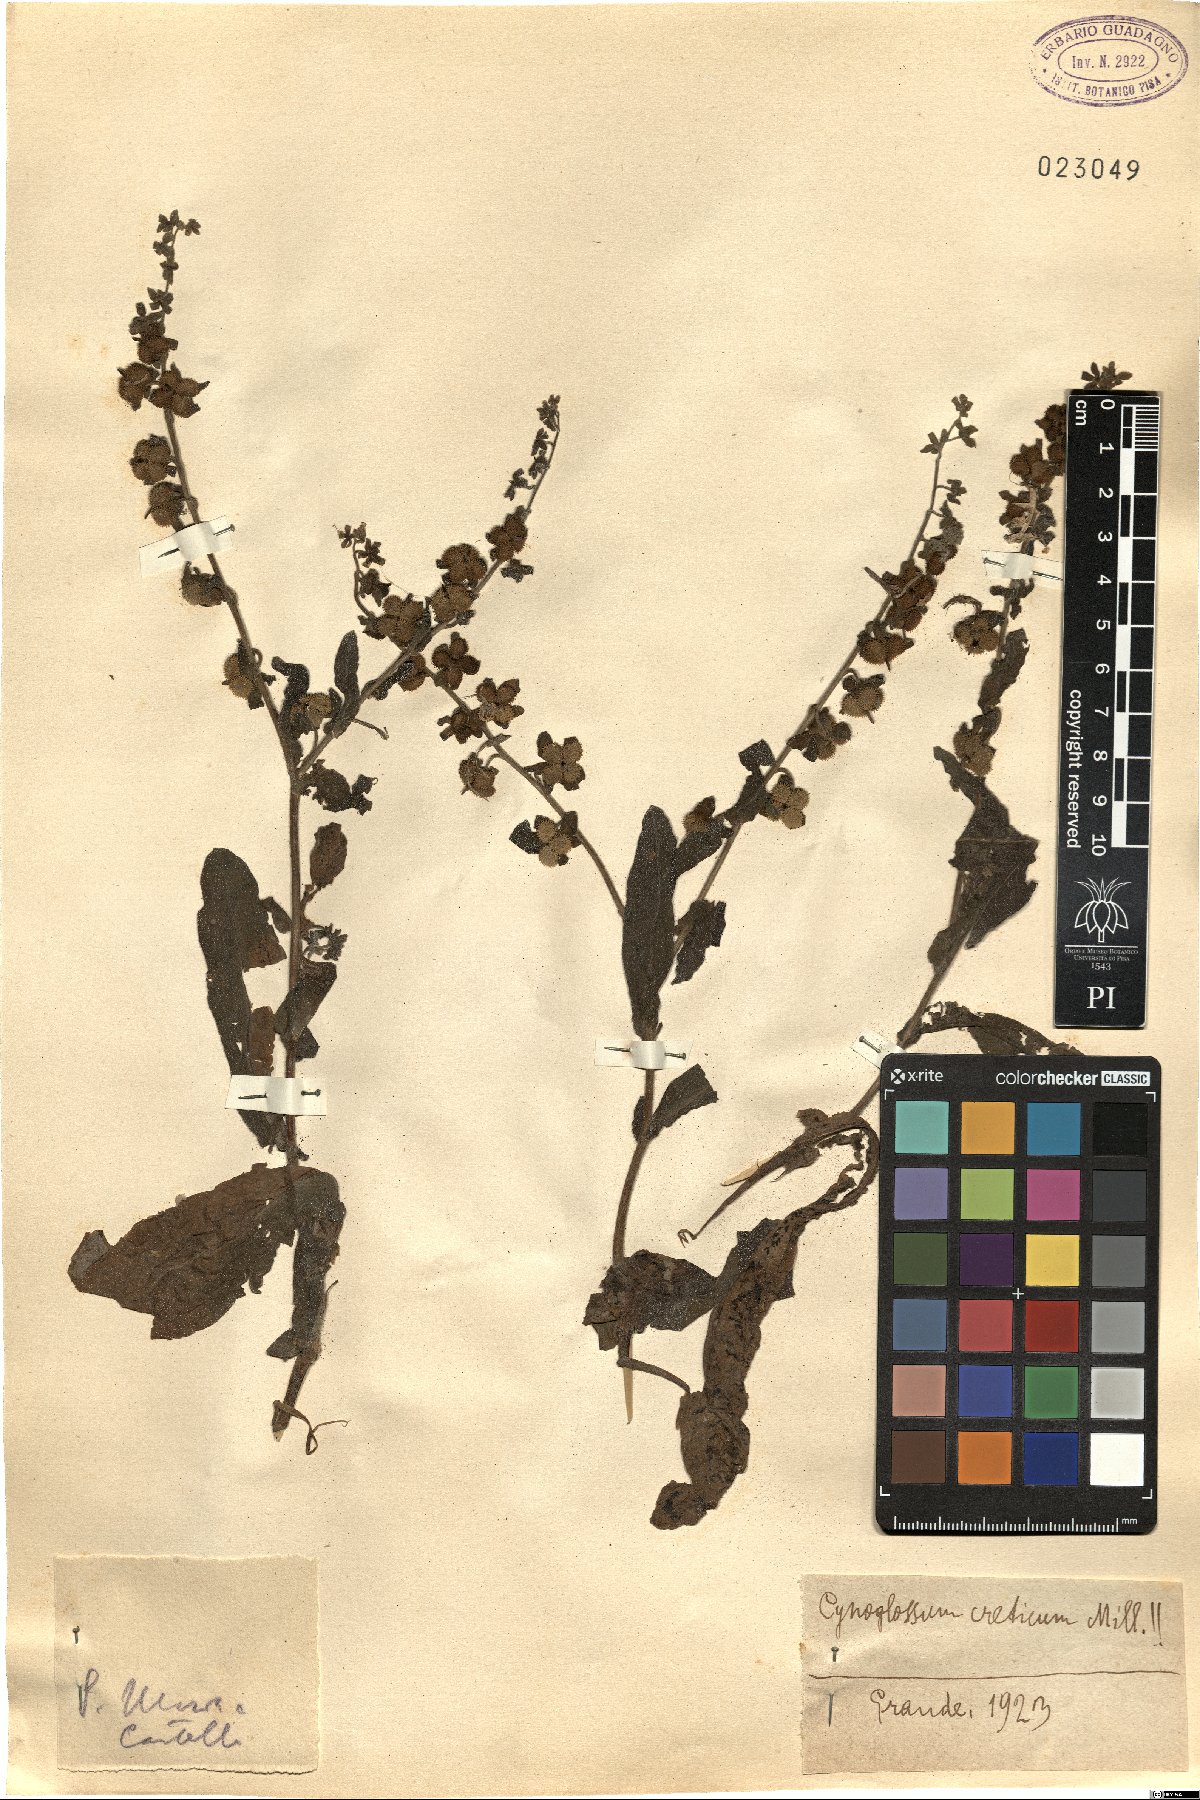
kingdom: Plantae
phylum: Tracheophyta
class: Magnoliopsida
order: Boraginales
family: Boraginaceae
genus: Cynoglossum
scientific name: Cynoglossum creticum
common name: Blue hound's tongue
